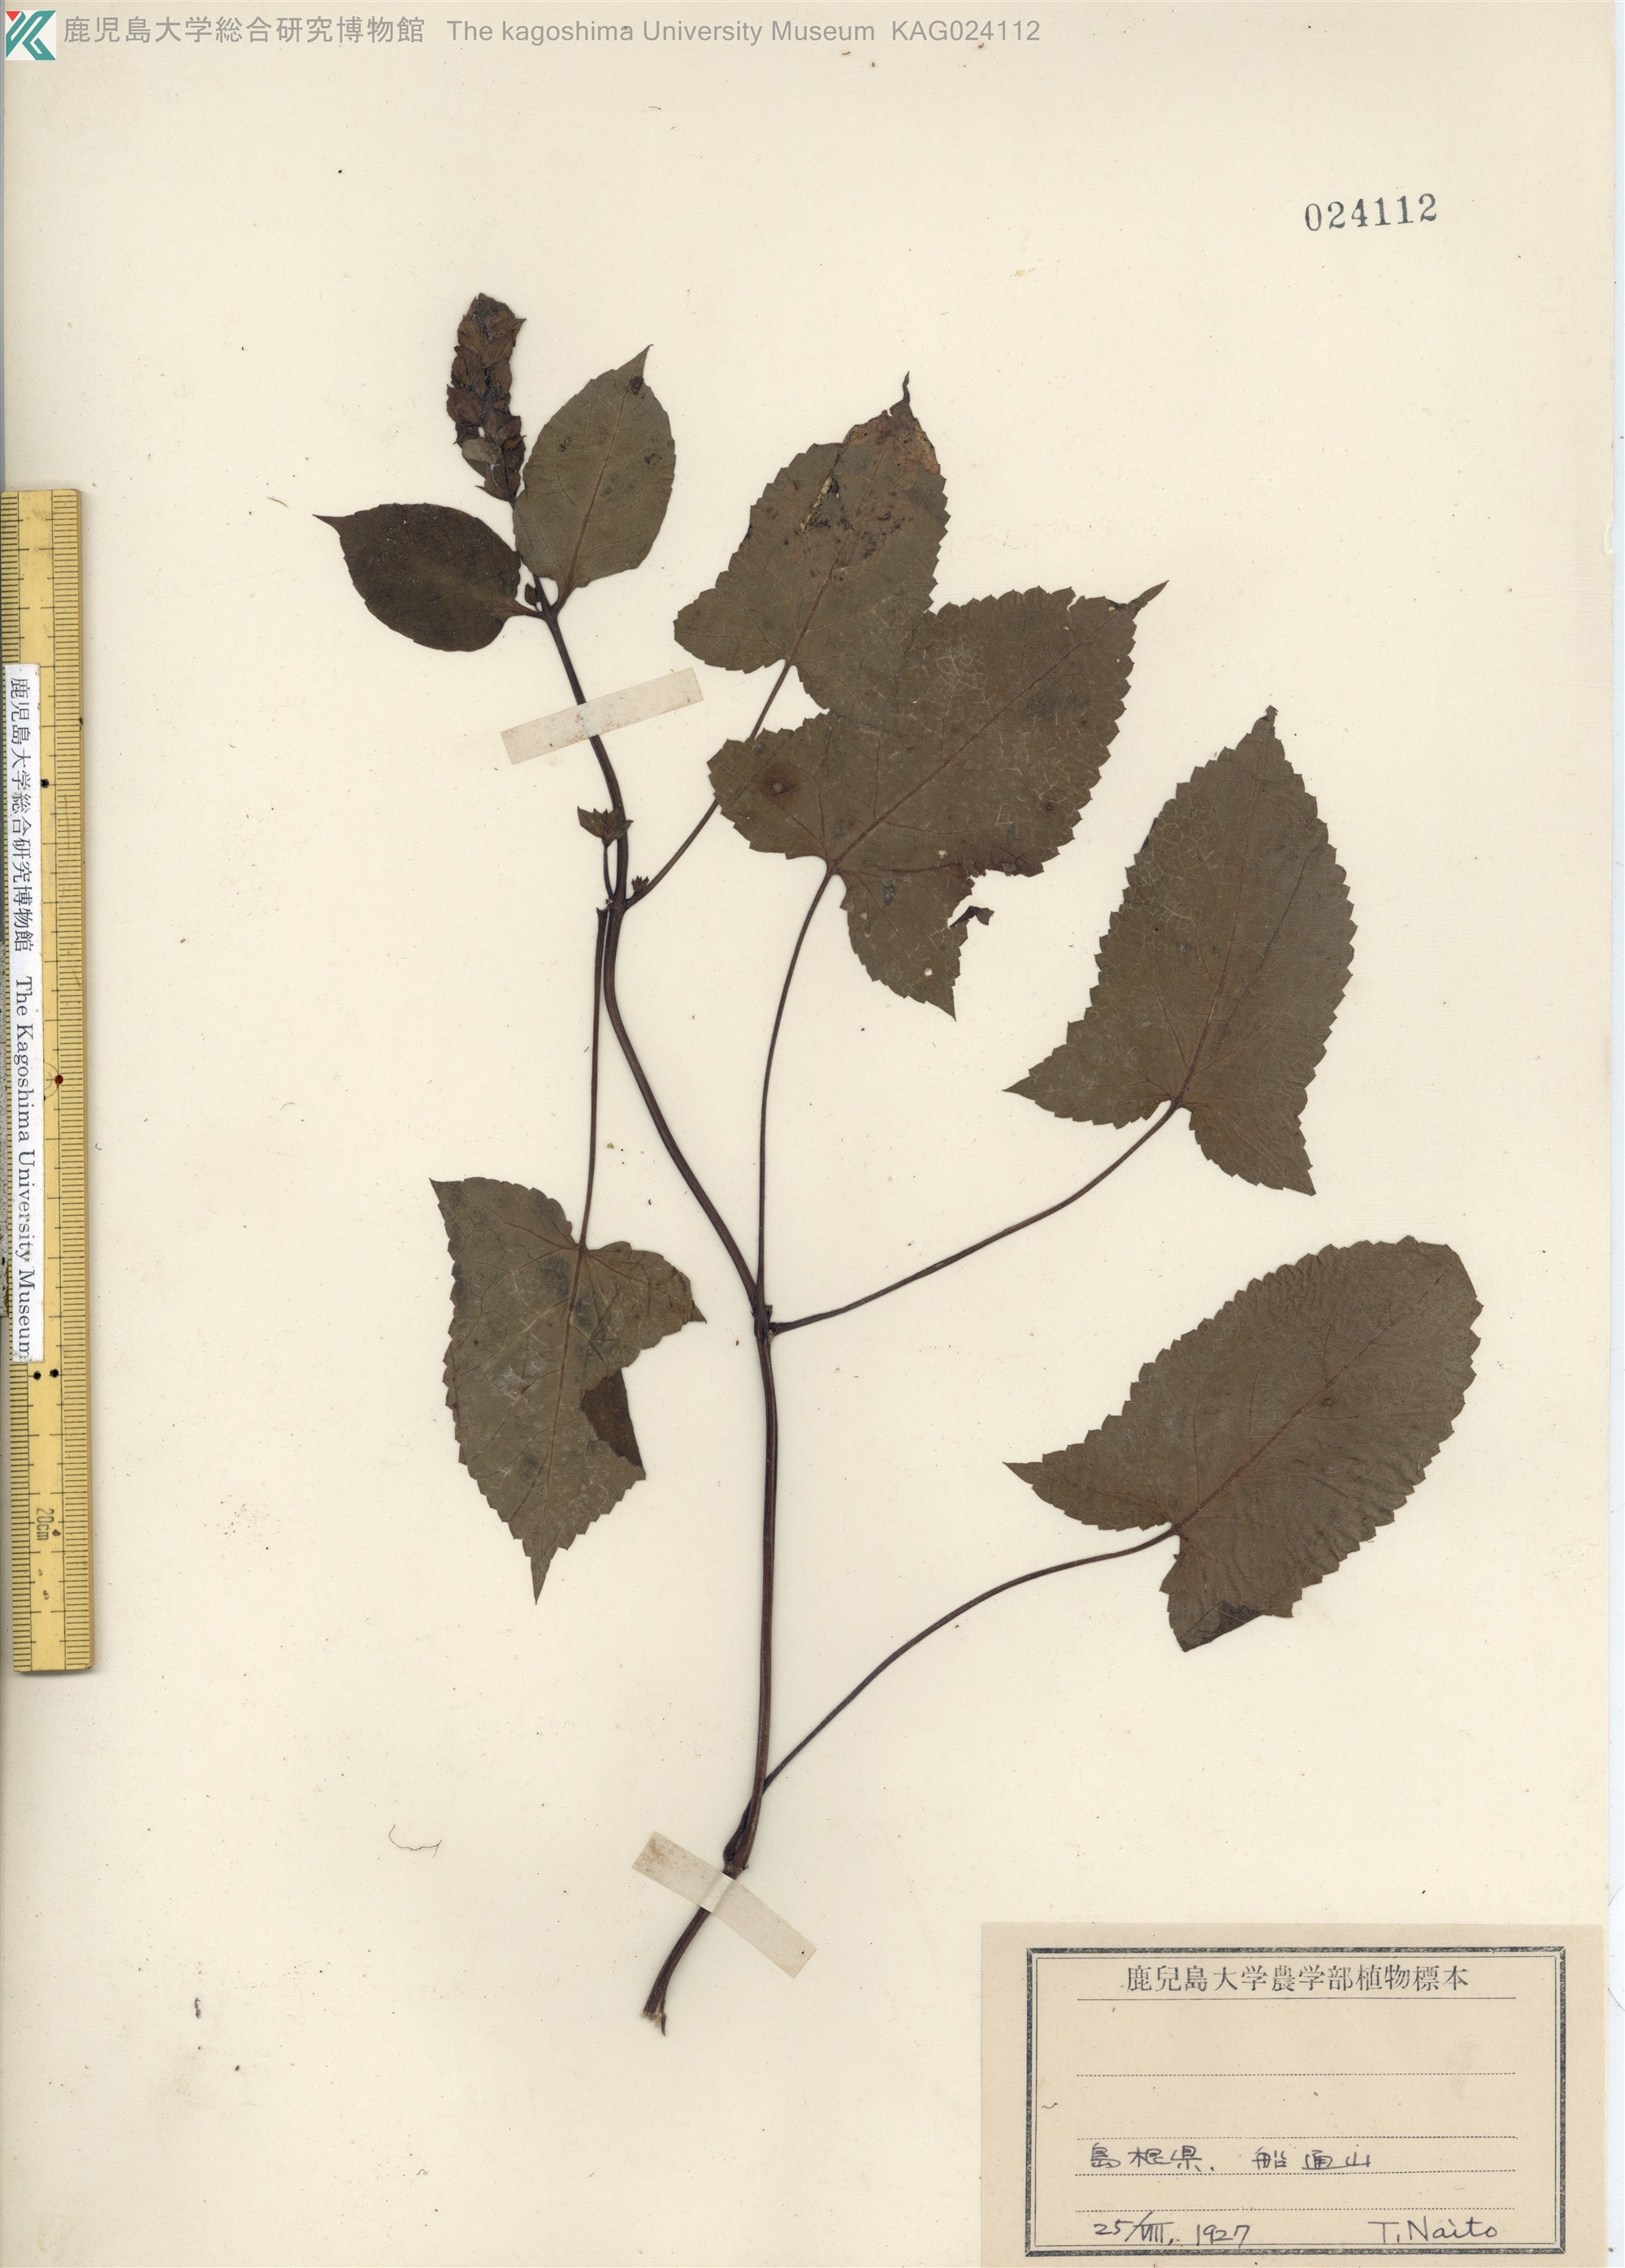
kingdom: Plantae
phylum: Tracheophyta
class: Magnoliopsida
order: Lamiales
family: Lamiaceae
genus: Salvia
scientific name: Salvia nipponica
